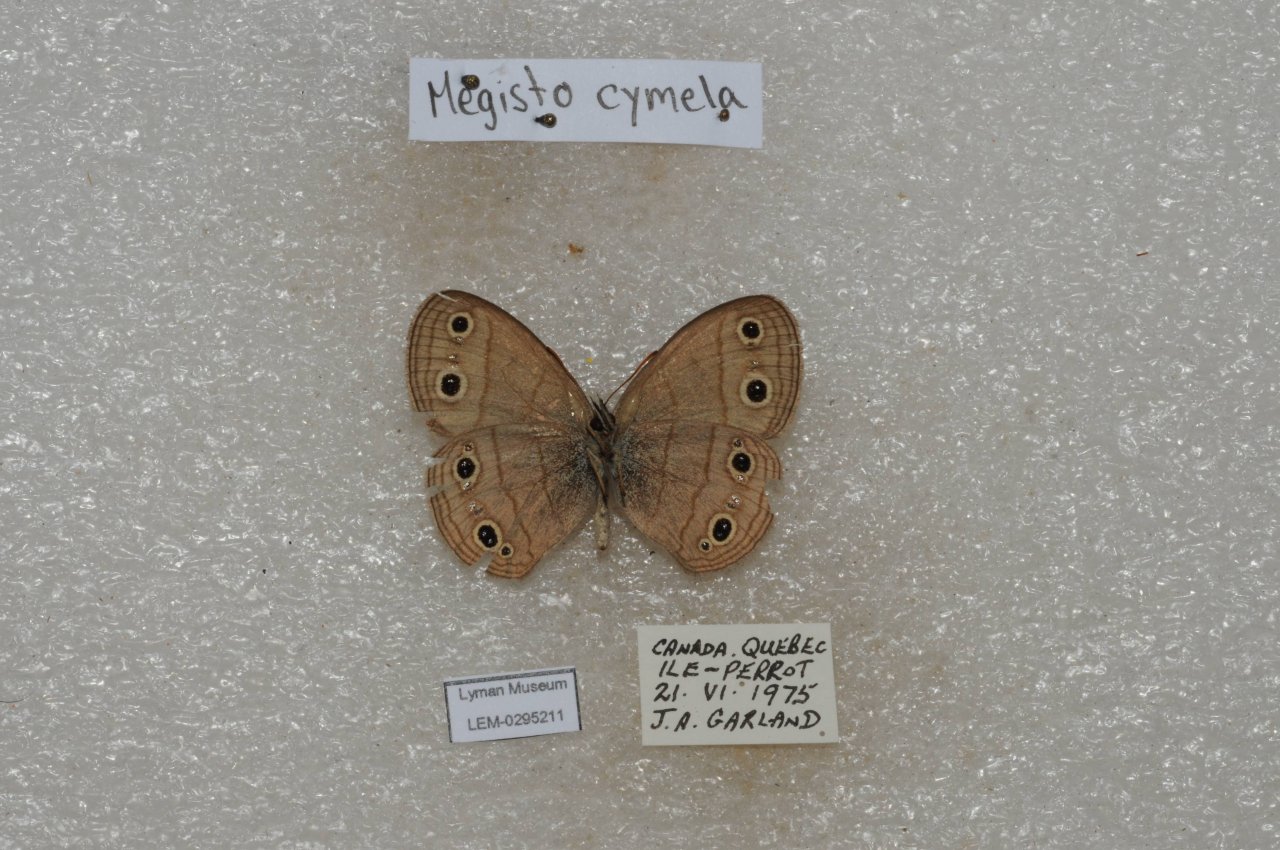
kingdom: Animalia
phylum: Arthropoda
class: Insecta
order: Lepidoptera
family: Nymphalidae
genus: Euptychia
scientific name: Euptychia cymela
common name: Little Wood Satyr
